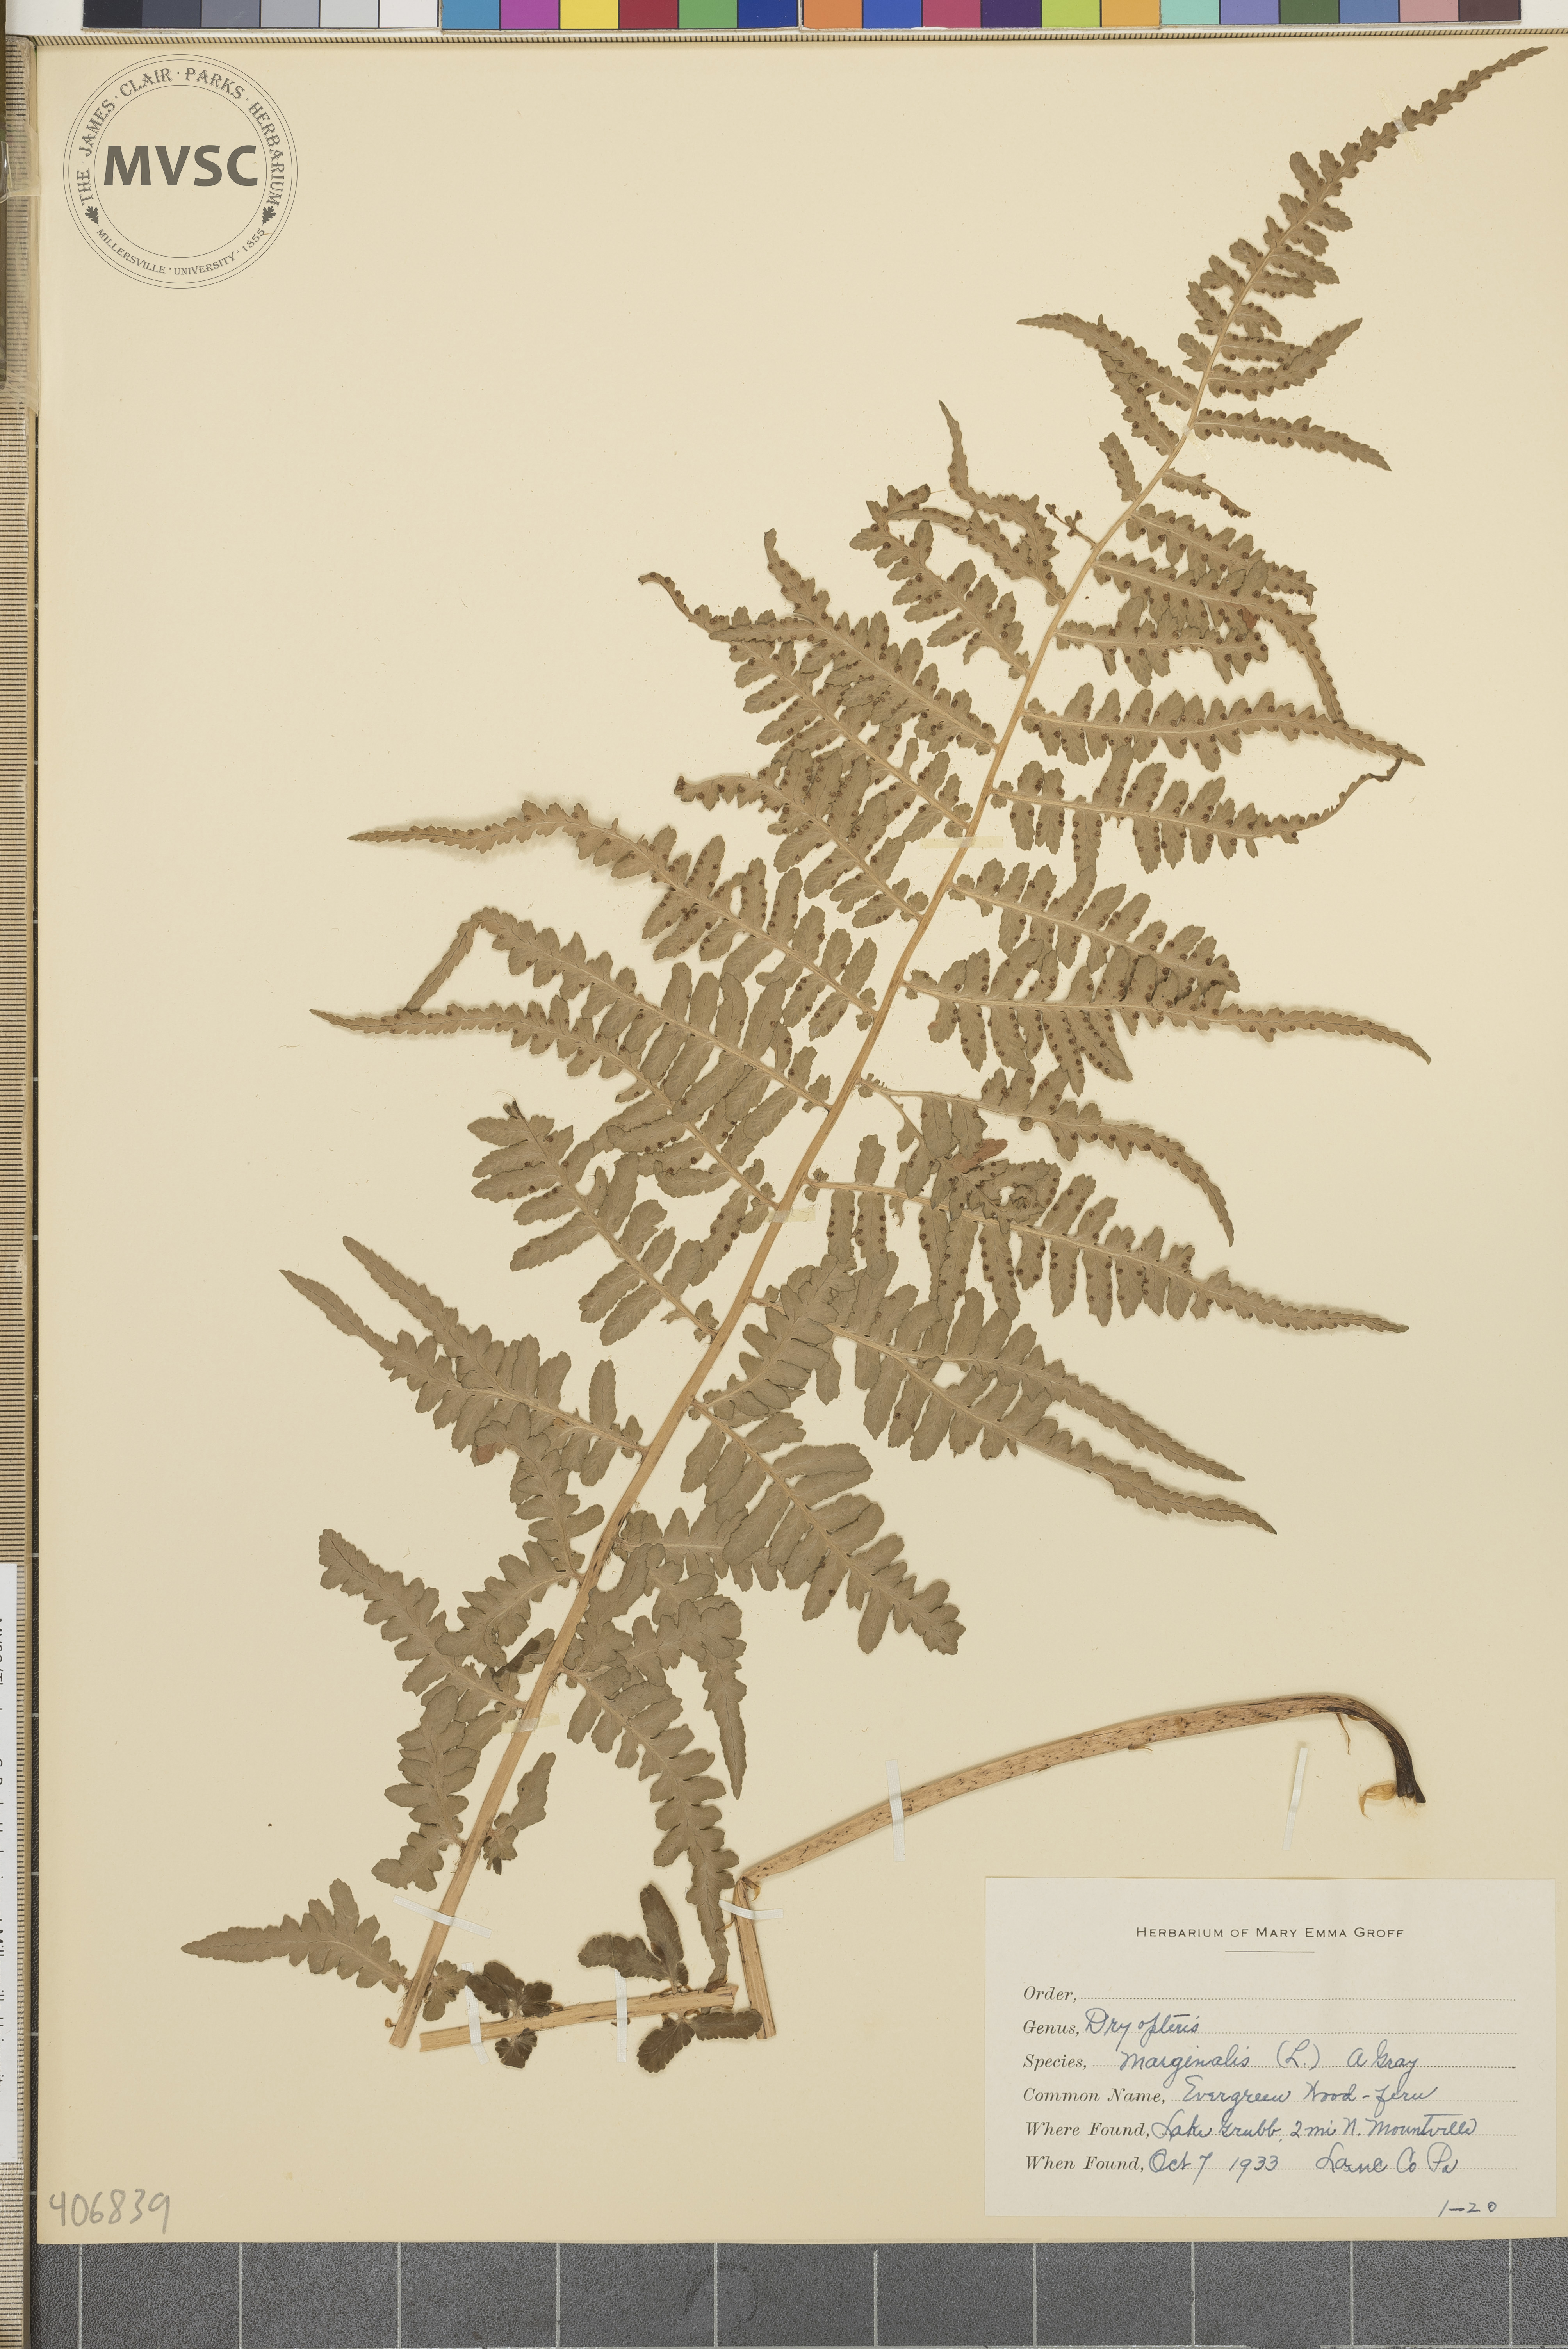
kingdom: Plantae
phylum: Tracheophyta
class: Polypodiopsida
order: Polypodiales
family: Dryopteridaceae
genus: Dryopteris
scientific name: Dryopteris marginalis
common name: Marginal wood fern
